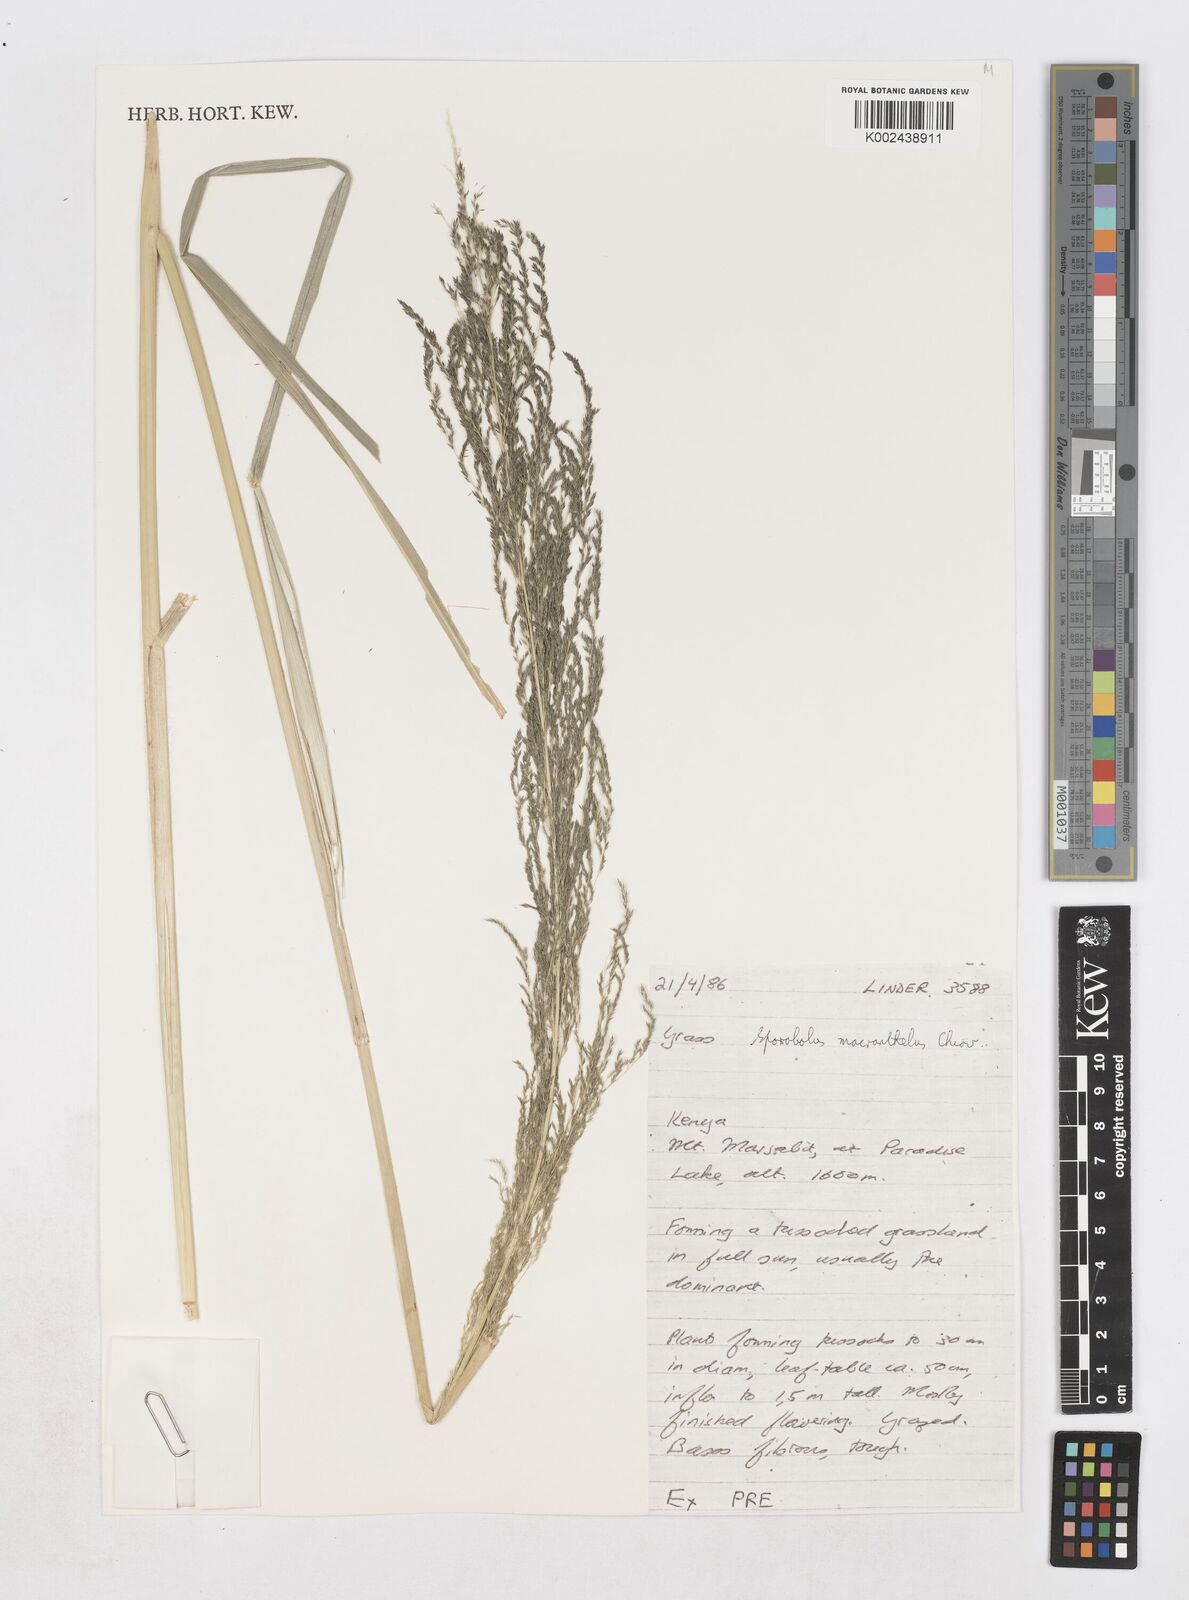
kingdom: Plantae
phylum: Tracheophyta
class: Liliopsida
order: Poales
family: Poaceae
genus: Sporobolus
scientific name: Sporobolus macranthelus
